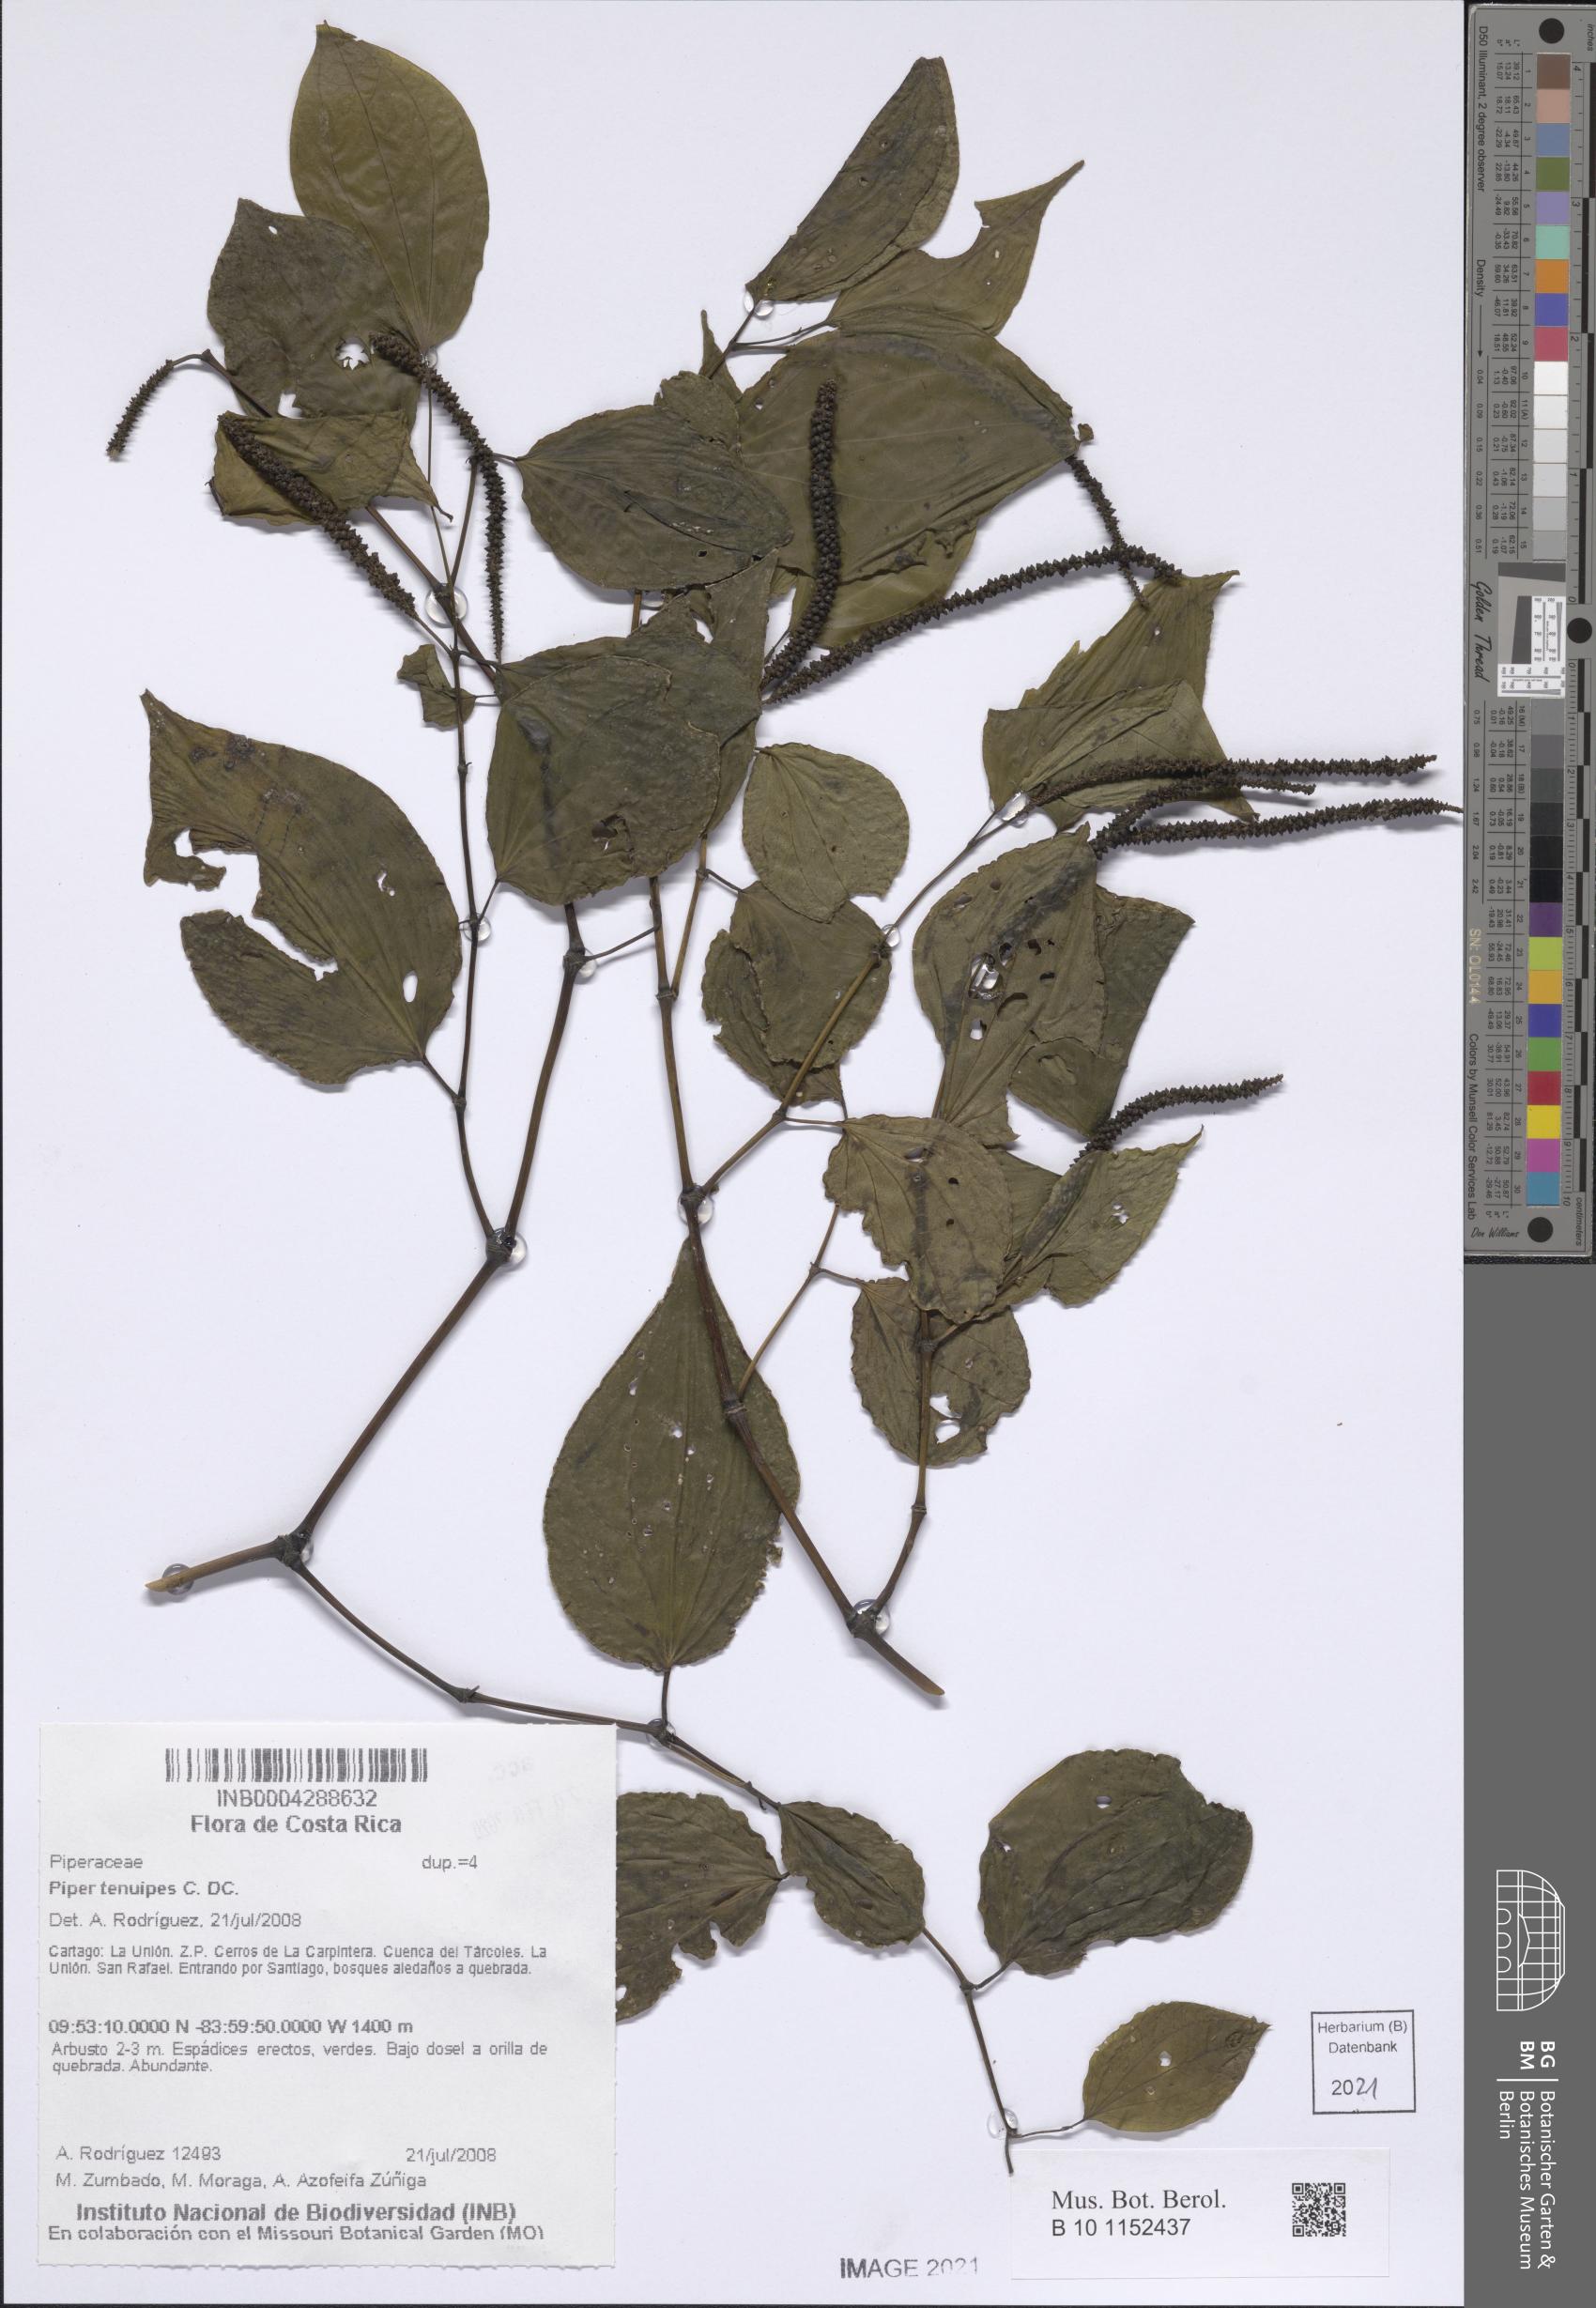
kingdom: Plantae
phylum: Tracheophyta
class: Magnoliopsida
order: Piperales
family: Piperaceae
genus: Piper
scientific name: Piper tenuipes
